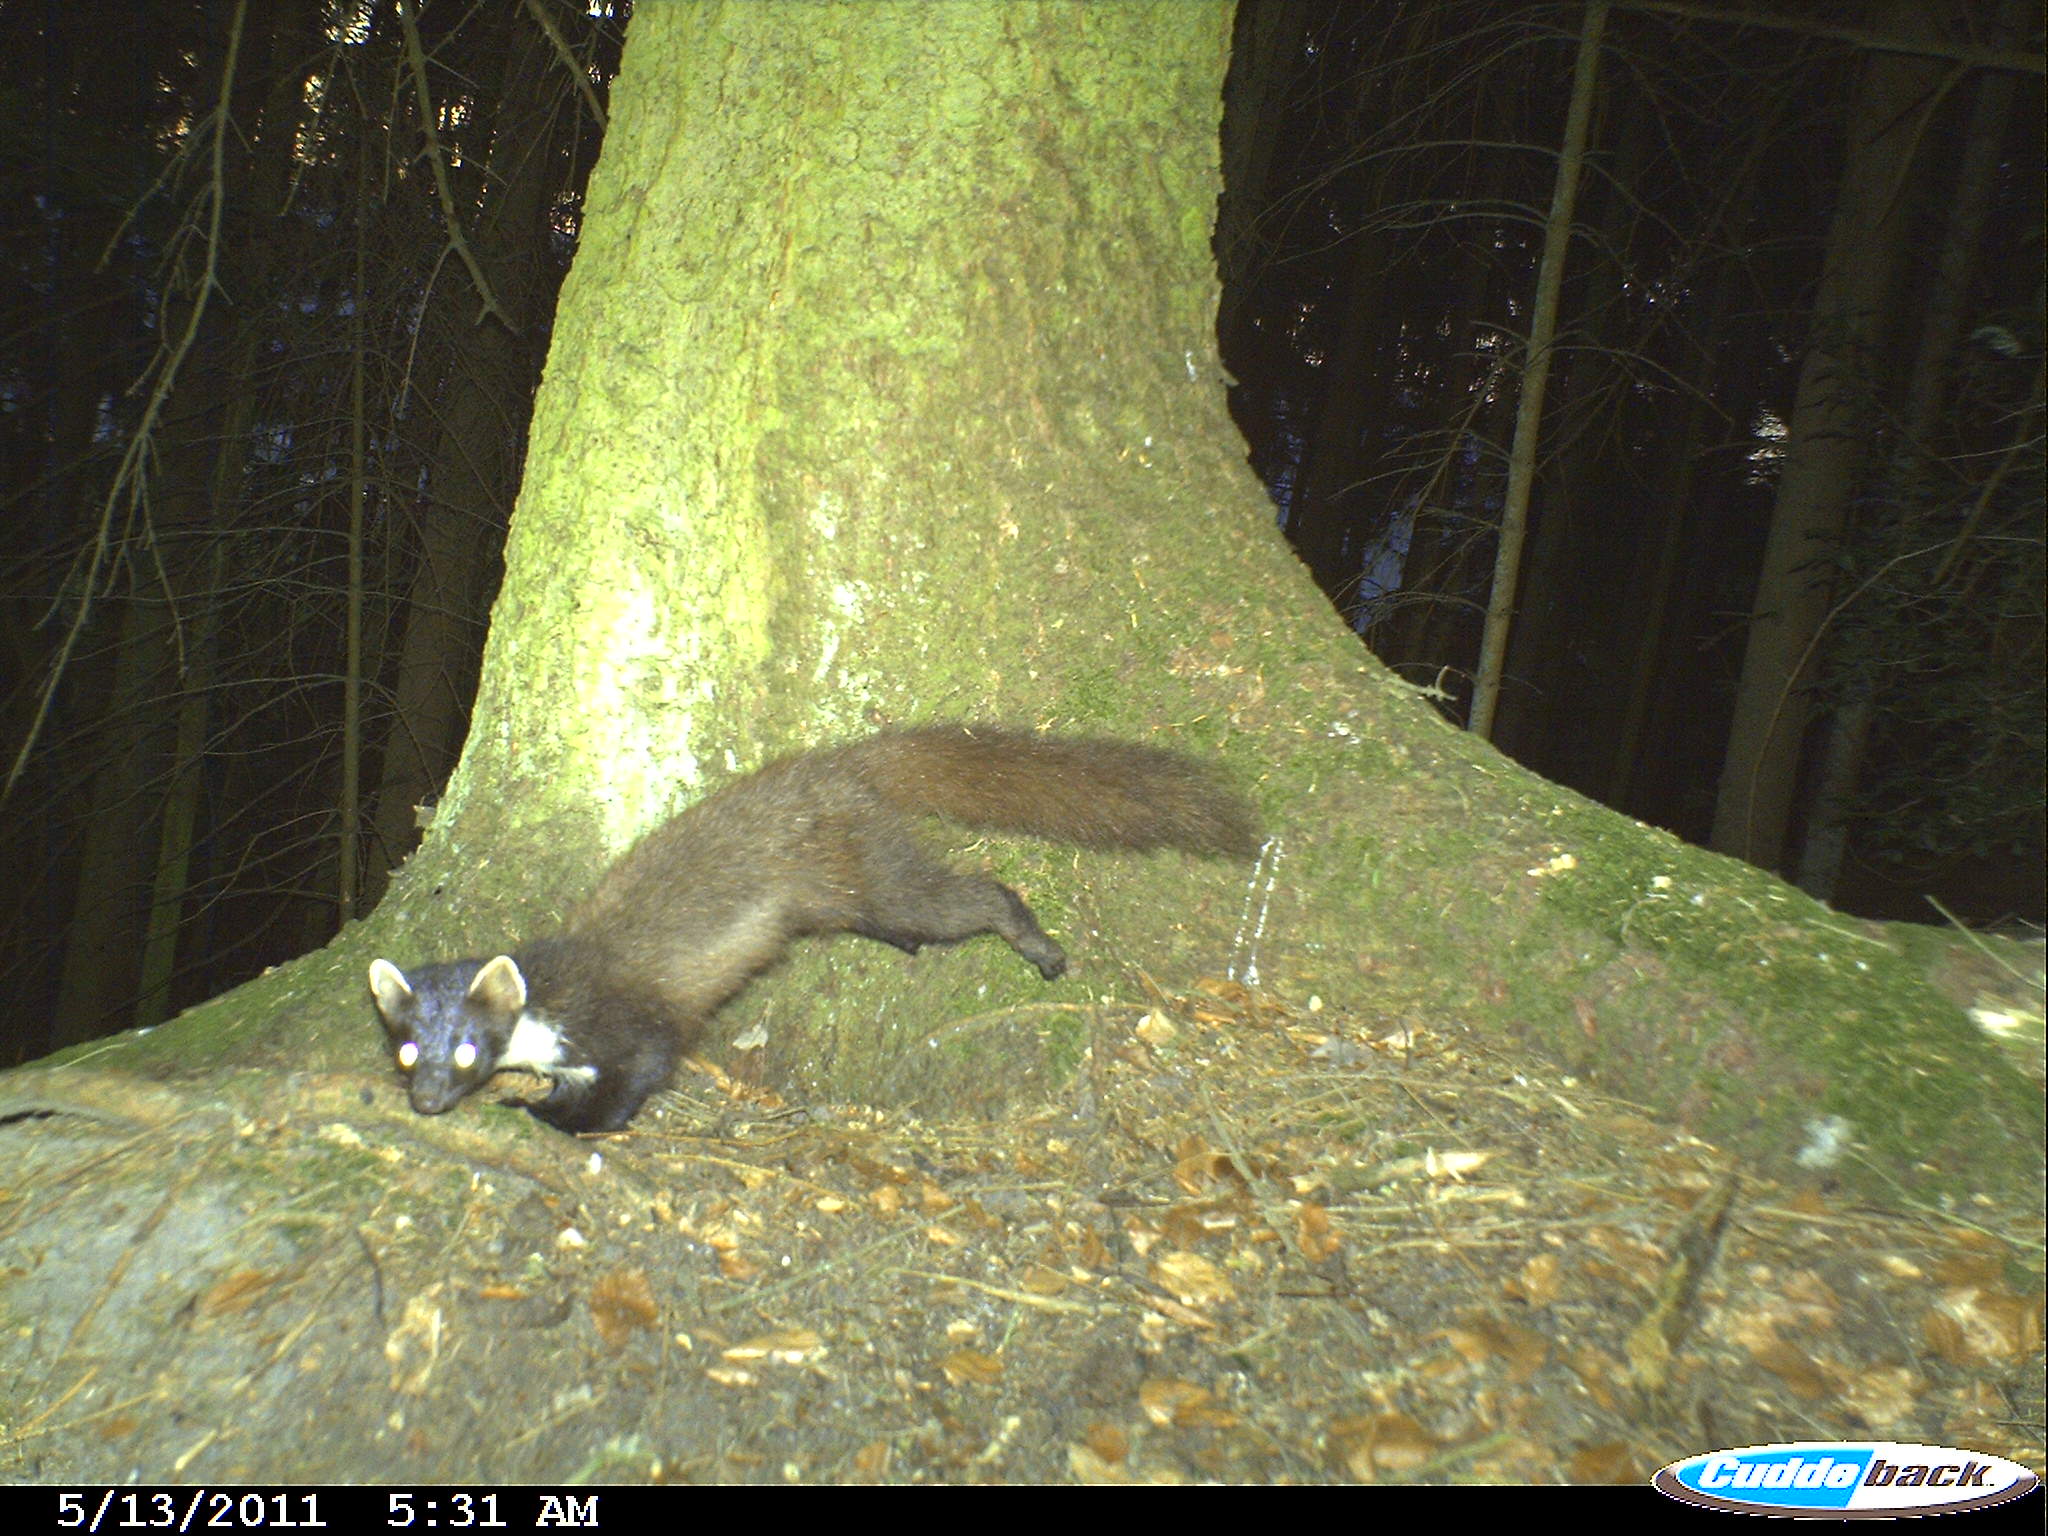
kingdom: Animalia
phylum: Chordata
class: Mammalia
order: Carnivora
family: Mustelidae
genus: Martes
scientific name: Martes martes
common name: European pine marten
